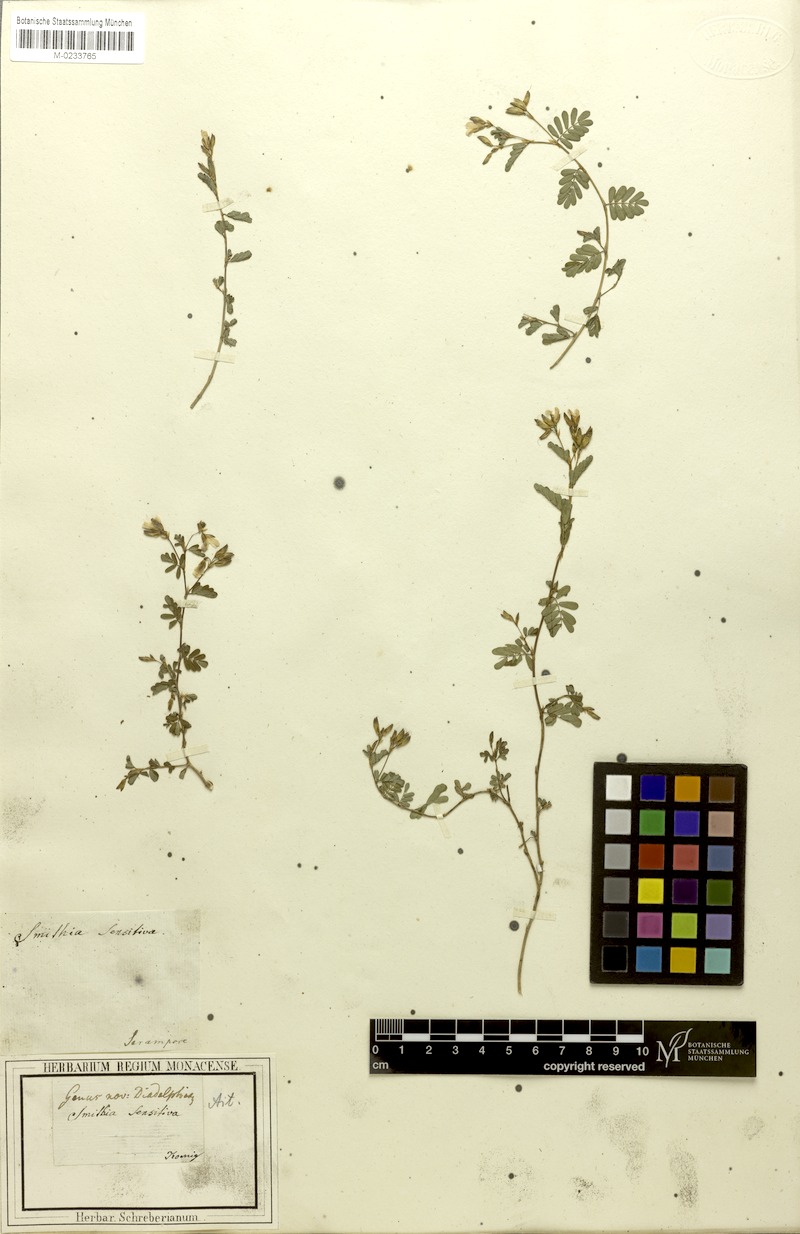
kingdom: Plantae
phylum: Tracheophyta
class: Magnoliopsida
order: Fabales
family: Fabaceae
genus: Smithia
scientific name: Smithia sensitiva
